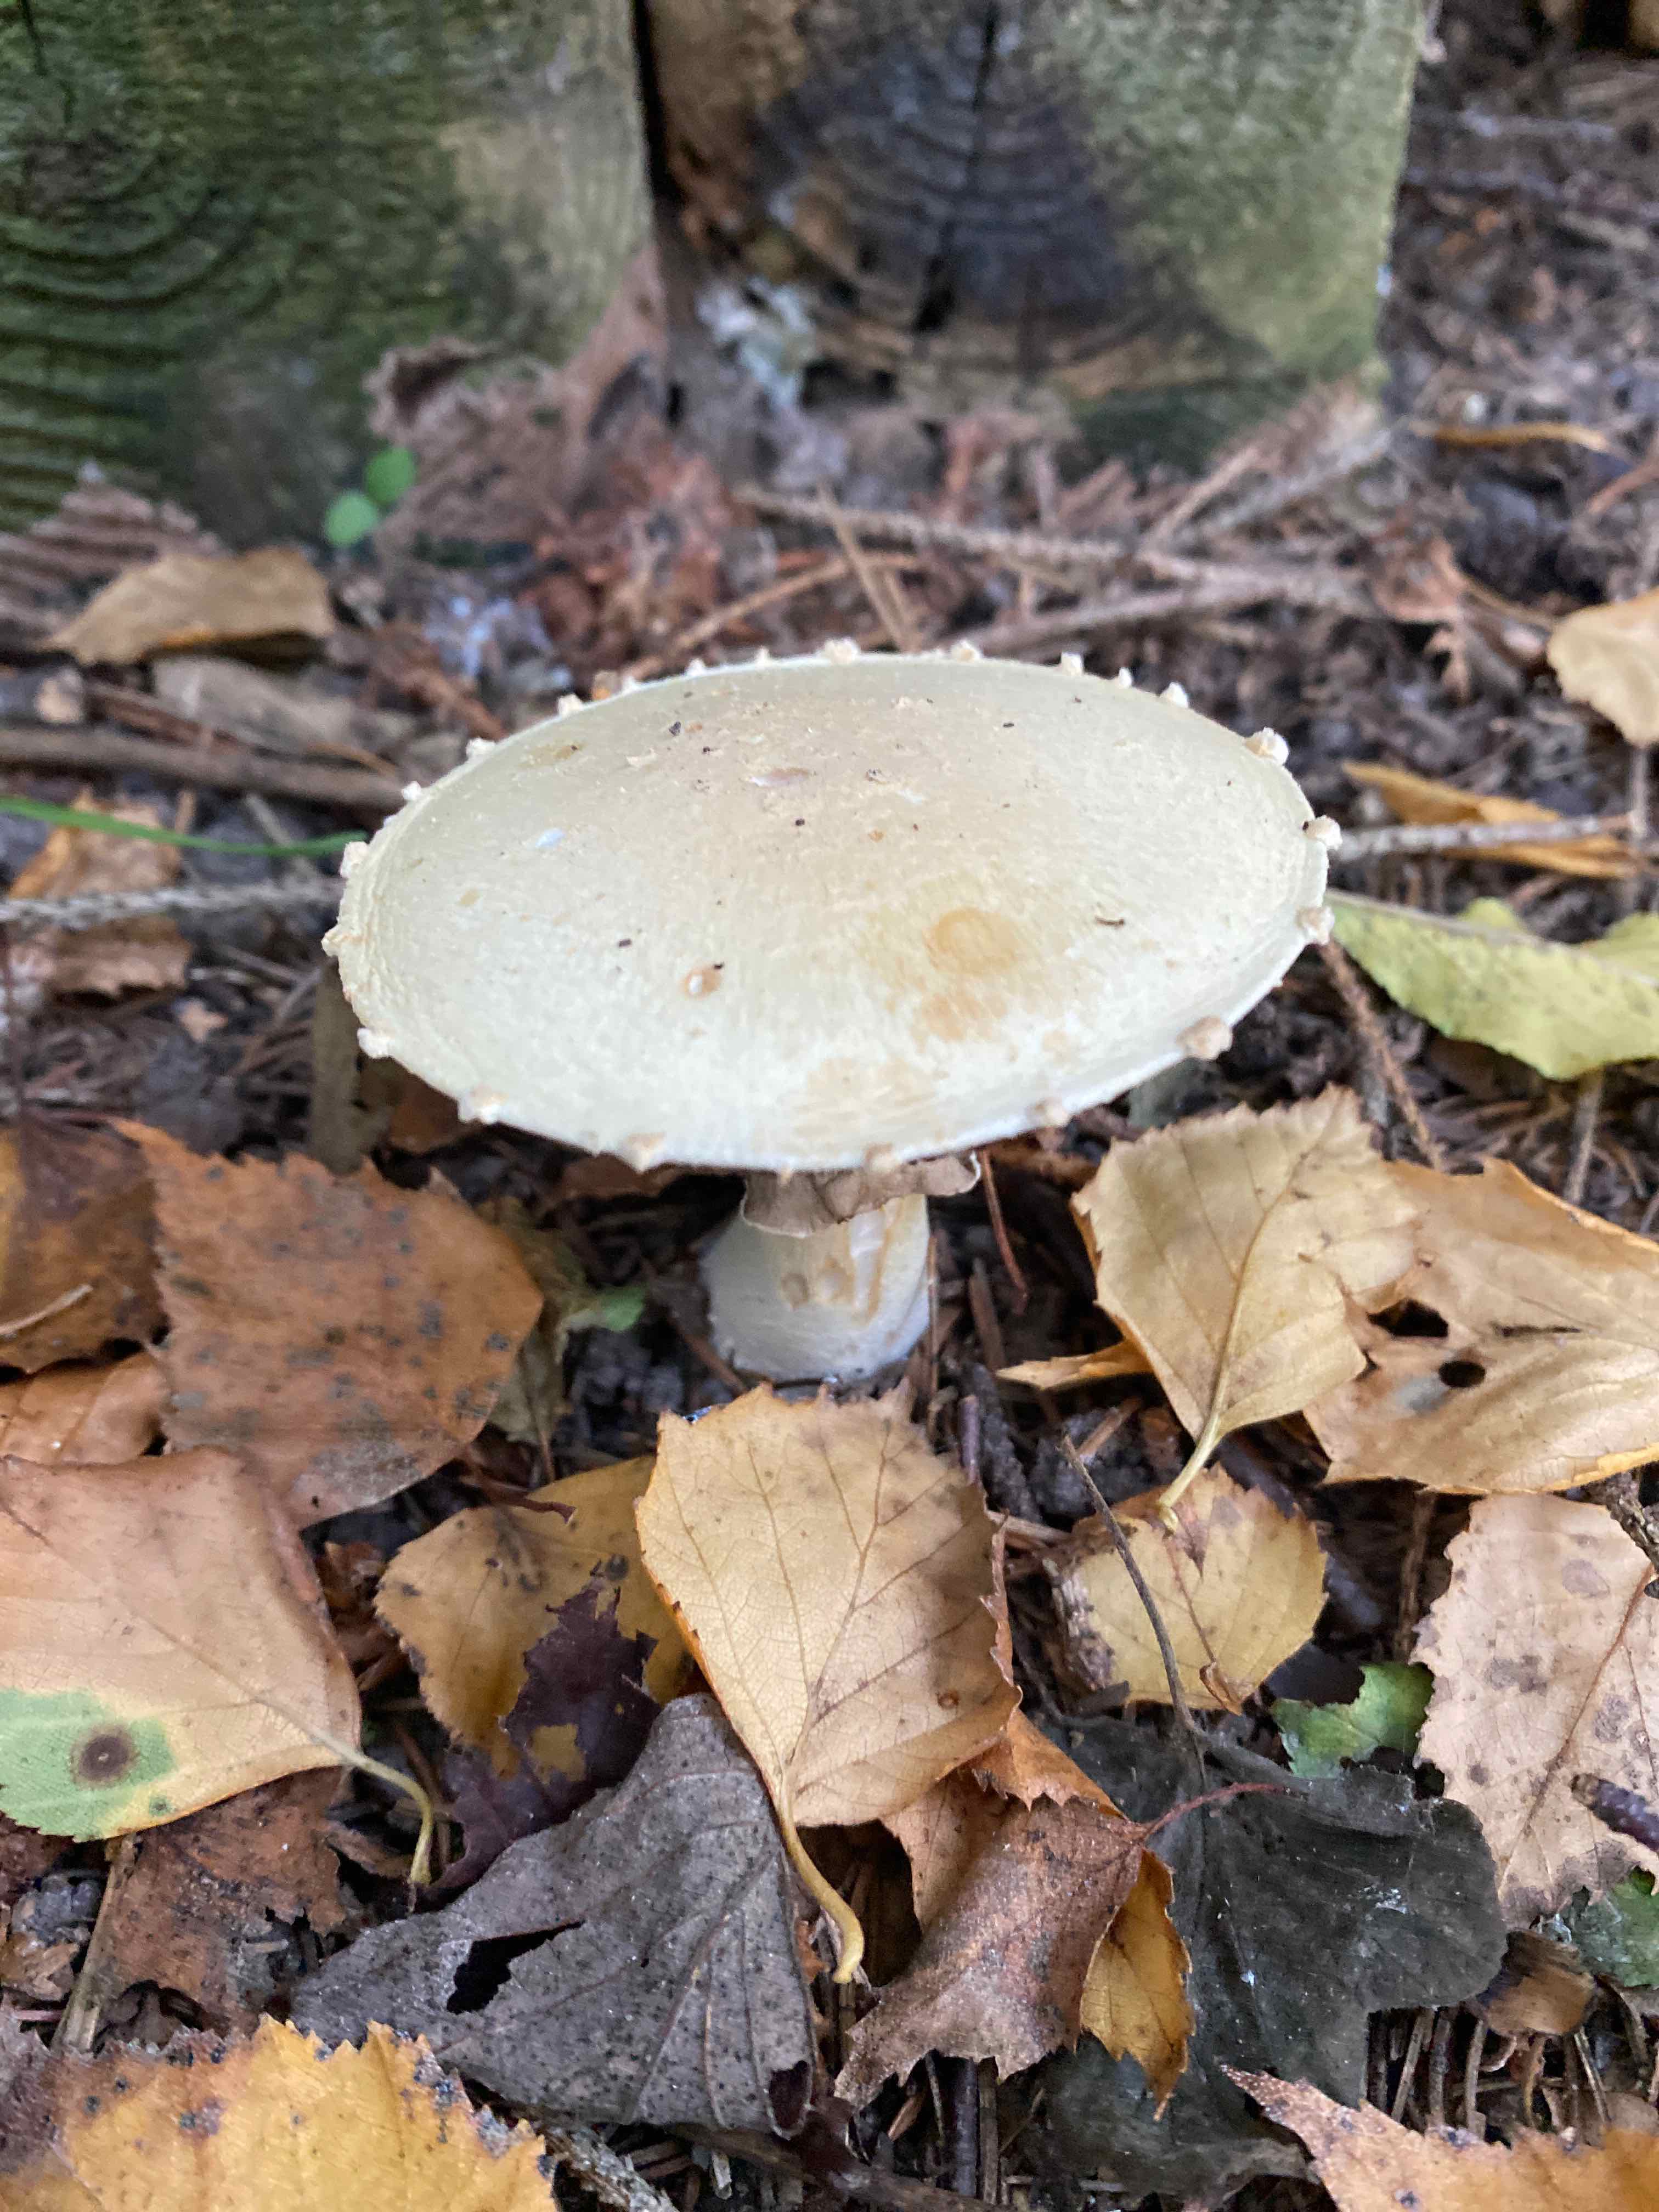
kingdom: Fungi
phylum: Basidiomycota
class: Agaricomycetes
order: Agaricales
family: Agaricaceae
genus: Agaricus
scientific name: Agaricus
